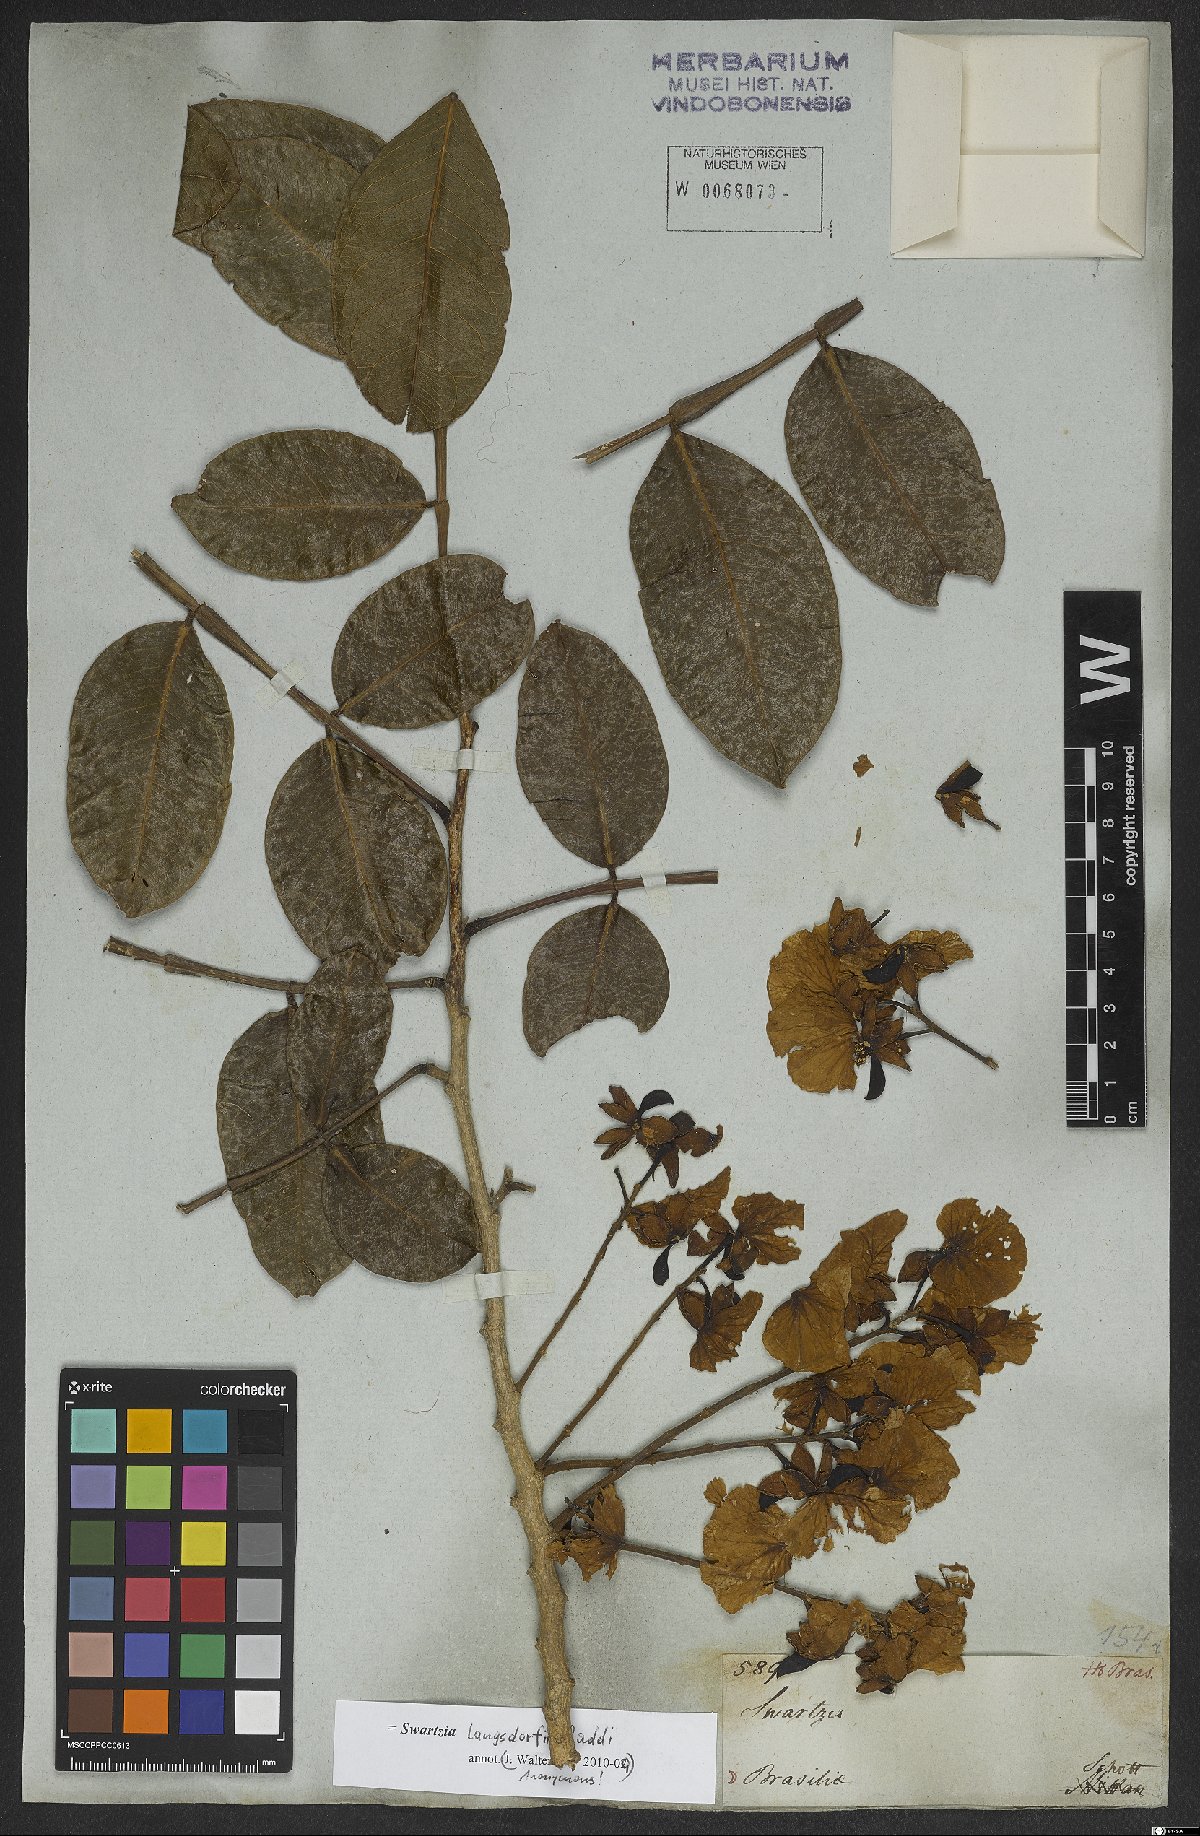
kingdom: Plantae
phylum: Tracheophyta
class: Magnoliopsida
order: Fabales
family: Fabaceae
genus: Swartzia
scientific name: Swartzia langsdorffii
